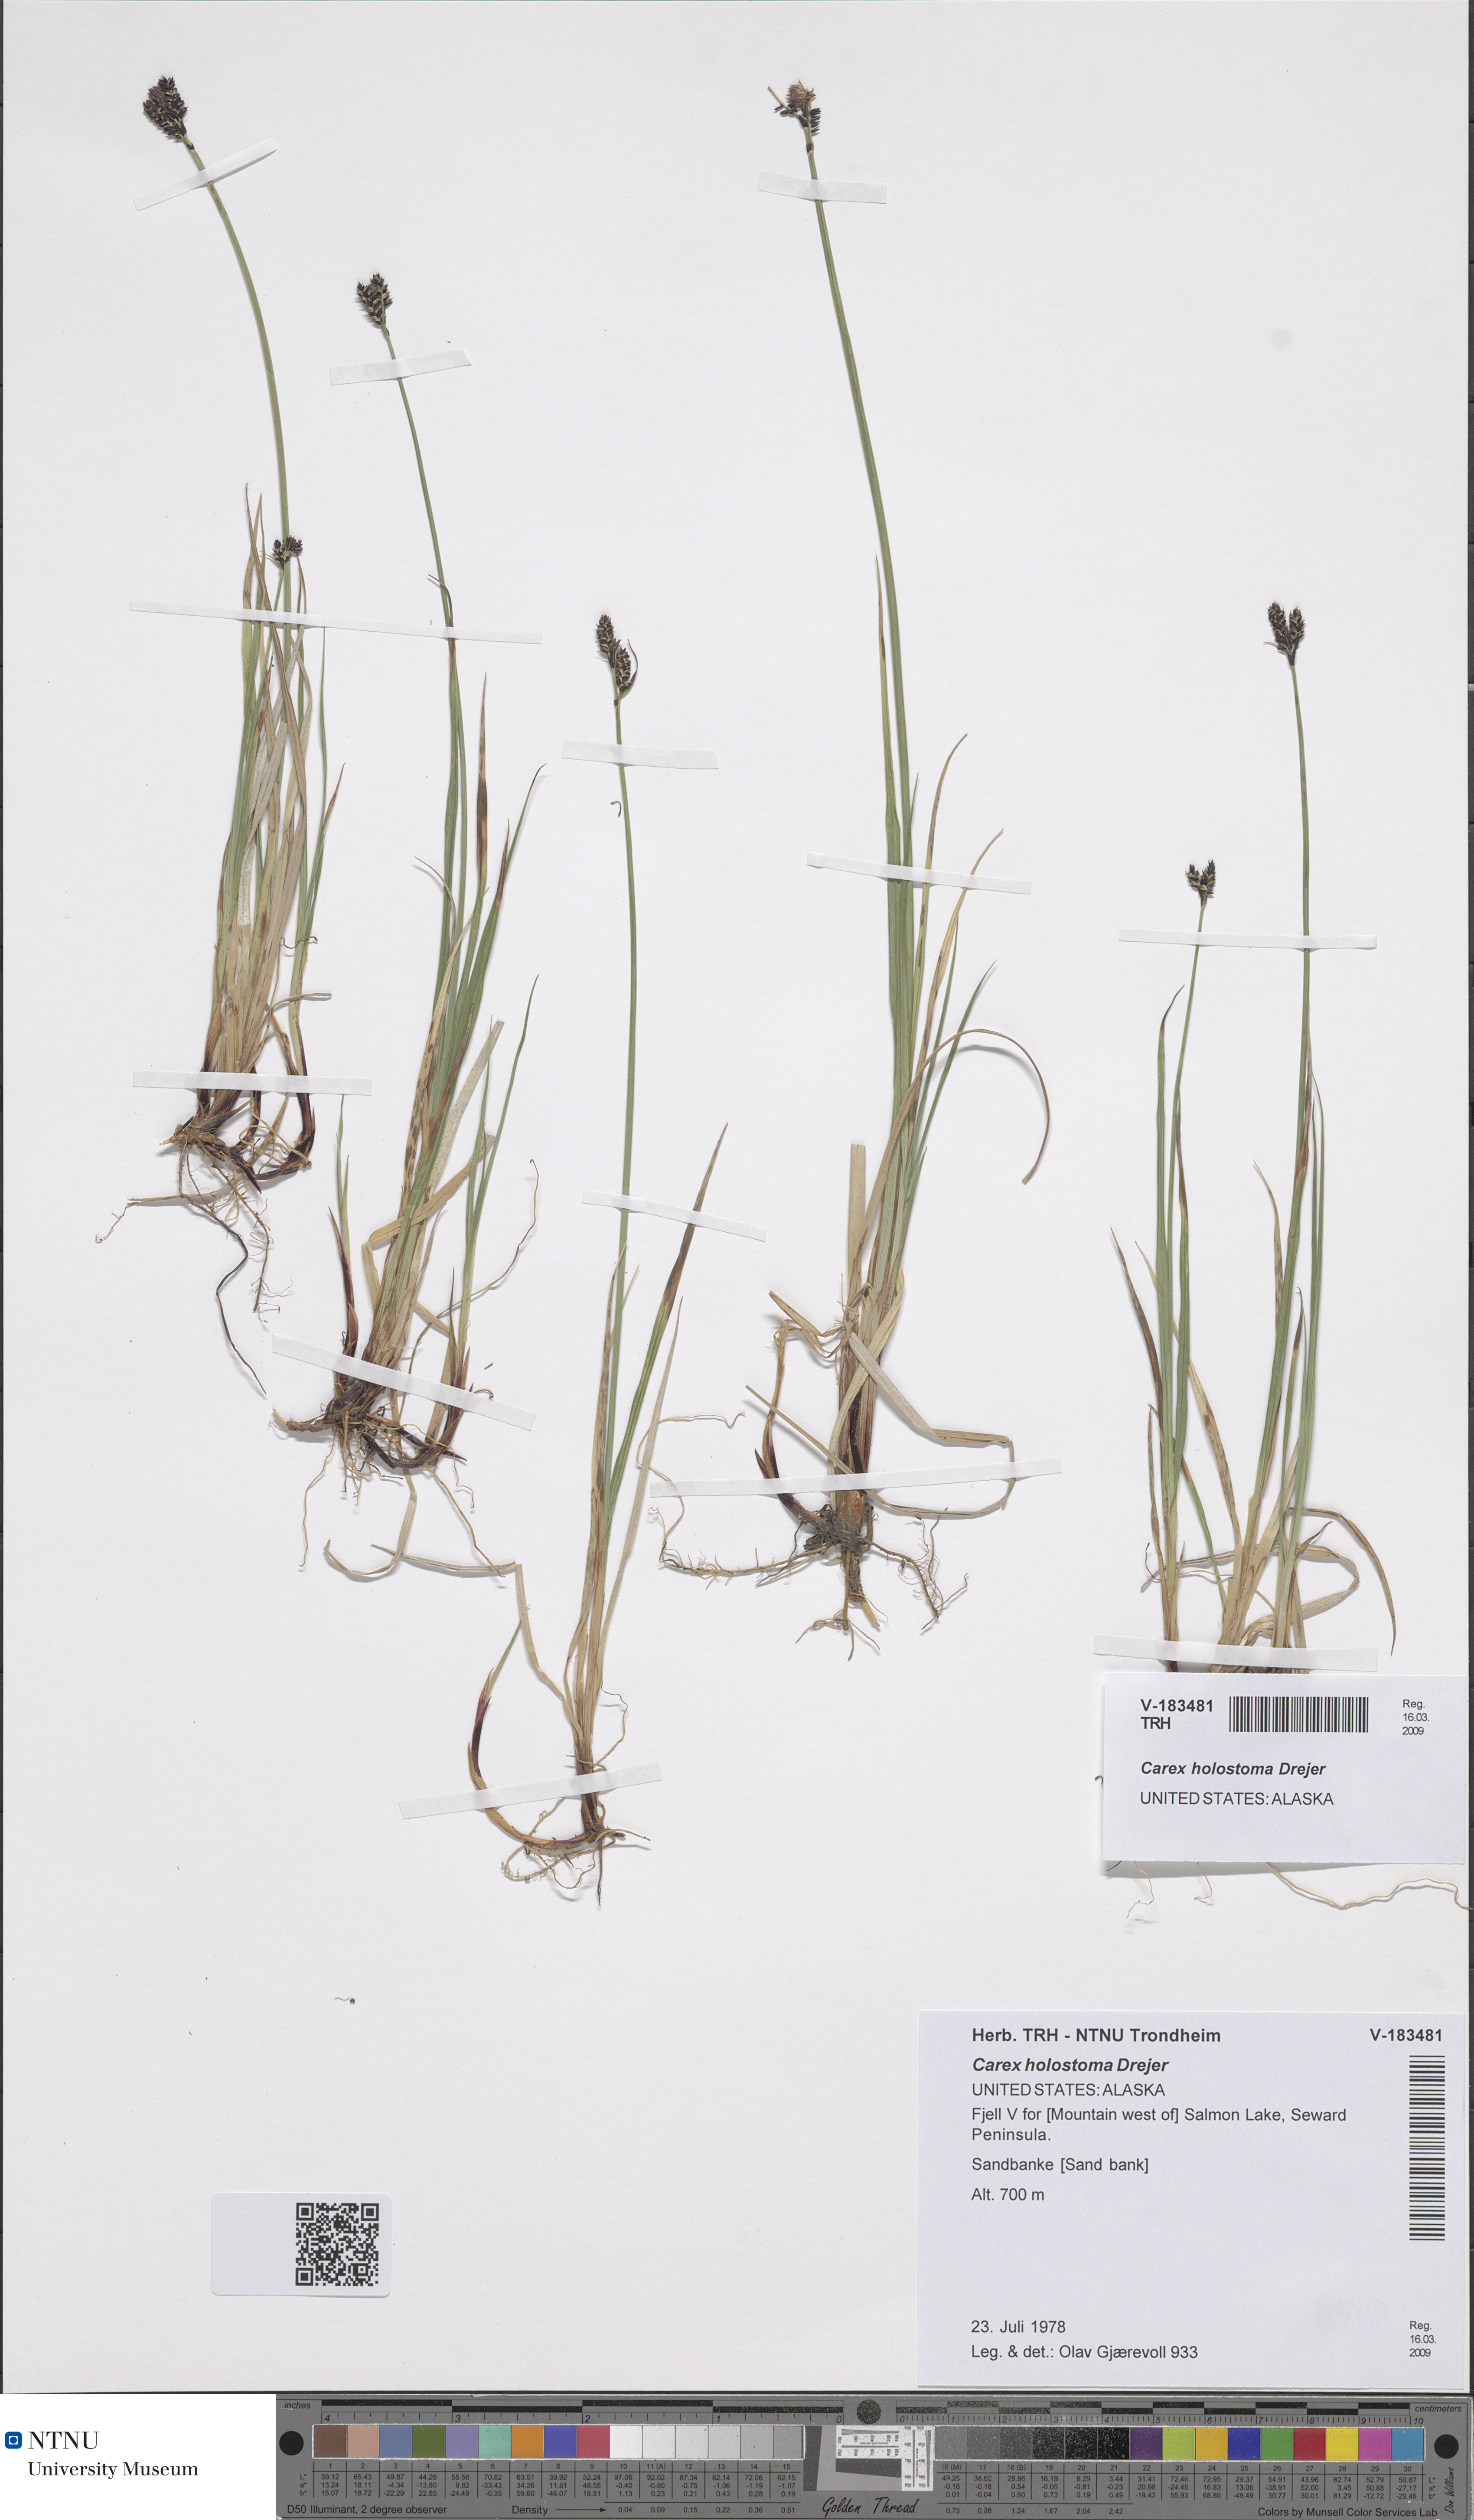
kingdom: Plantae
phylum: Tracheophyta
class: Liliopsida
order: Poales
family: Cyperaceae
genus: Carex
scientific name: Carex holostoma
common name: Arctic marsh sedge
